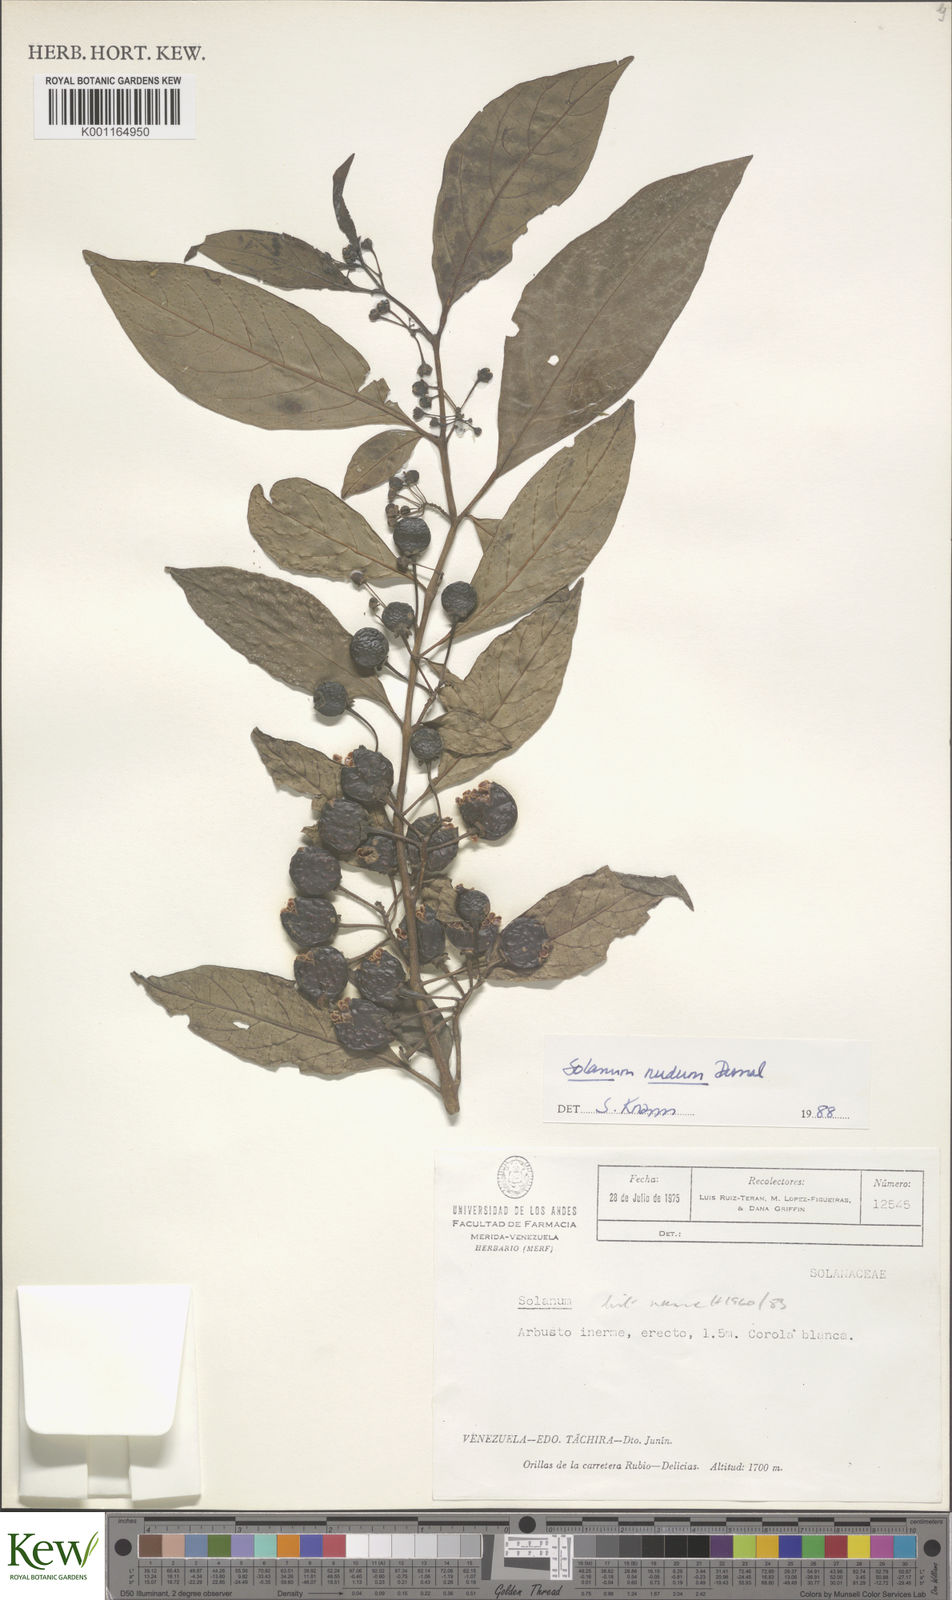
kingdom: Plantae
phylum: Tracheophyta
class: Magnoliopsida
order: Solanales
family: Solanaceae
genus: Solanum
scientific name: Solanum nudum
